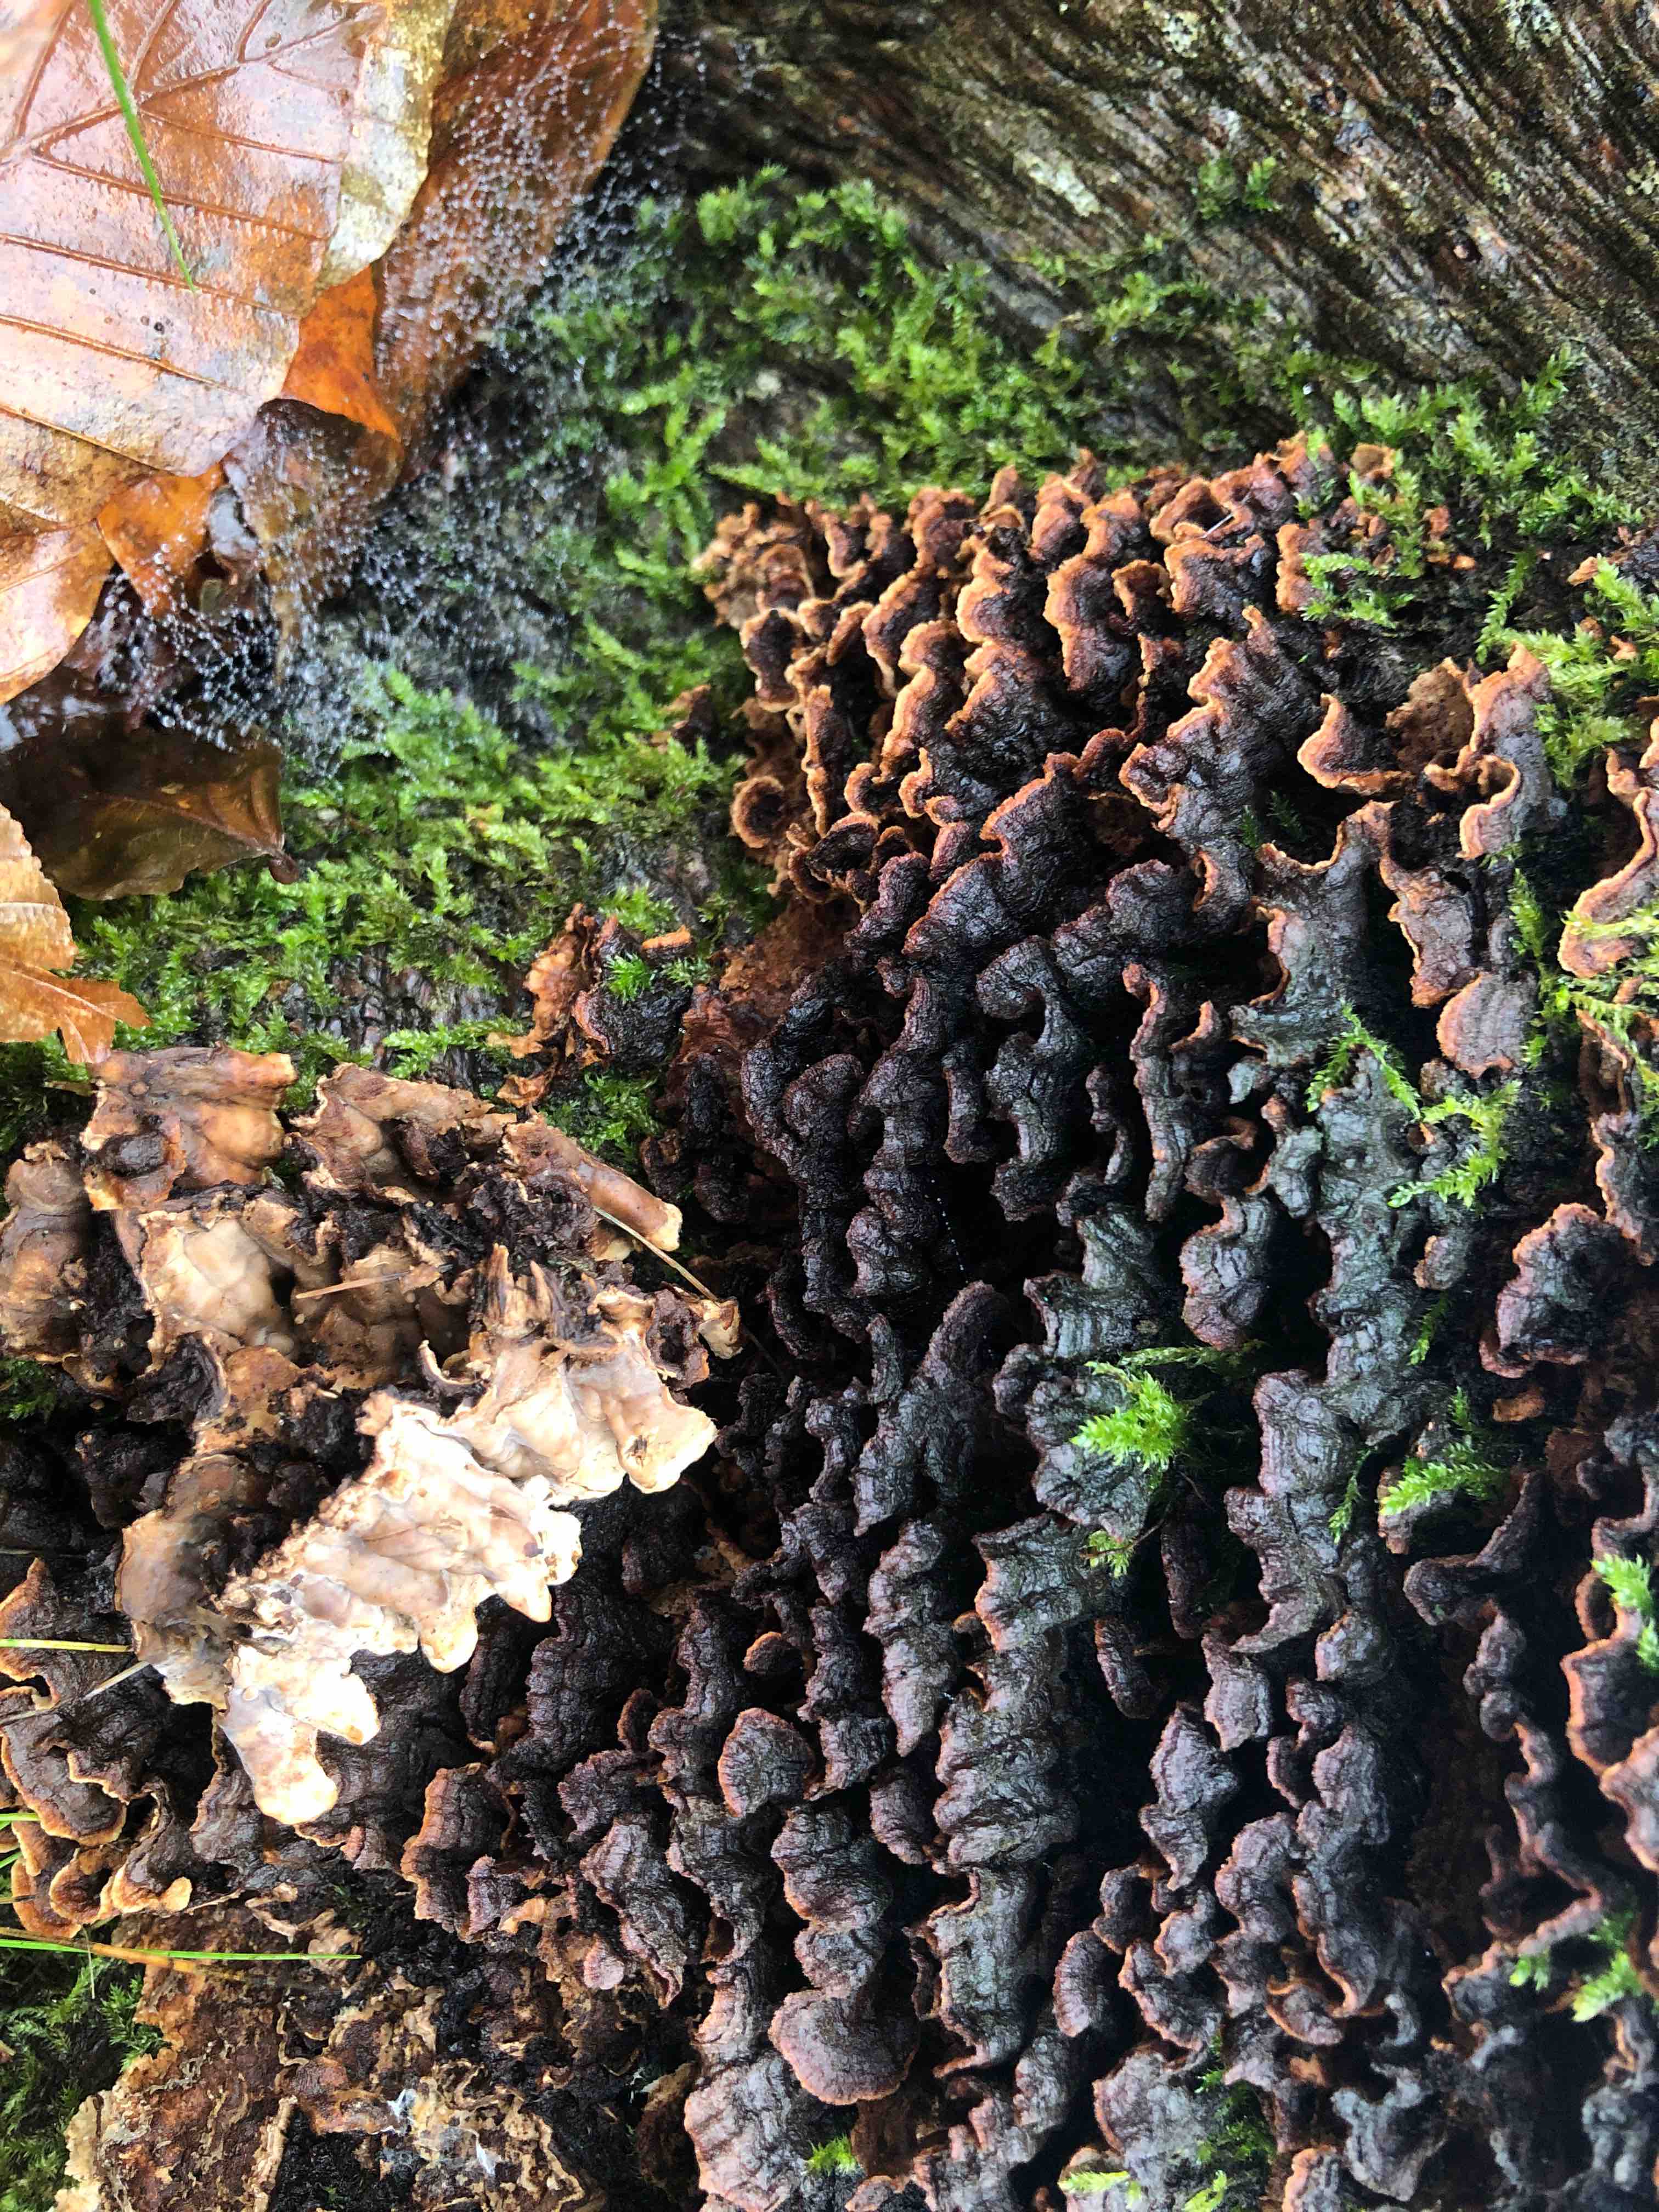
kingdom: Fungi
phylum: Basidiomycota
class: Agaricomycetes
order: Russulales
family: Hericiaceae
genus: Laxitextum
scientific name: Laxitextum bicolor
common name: tvefarvet filtskind
